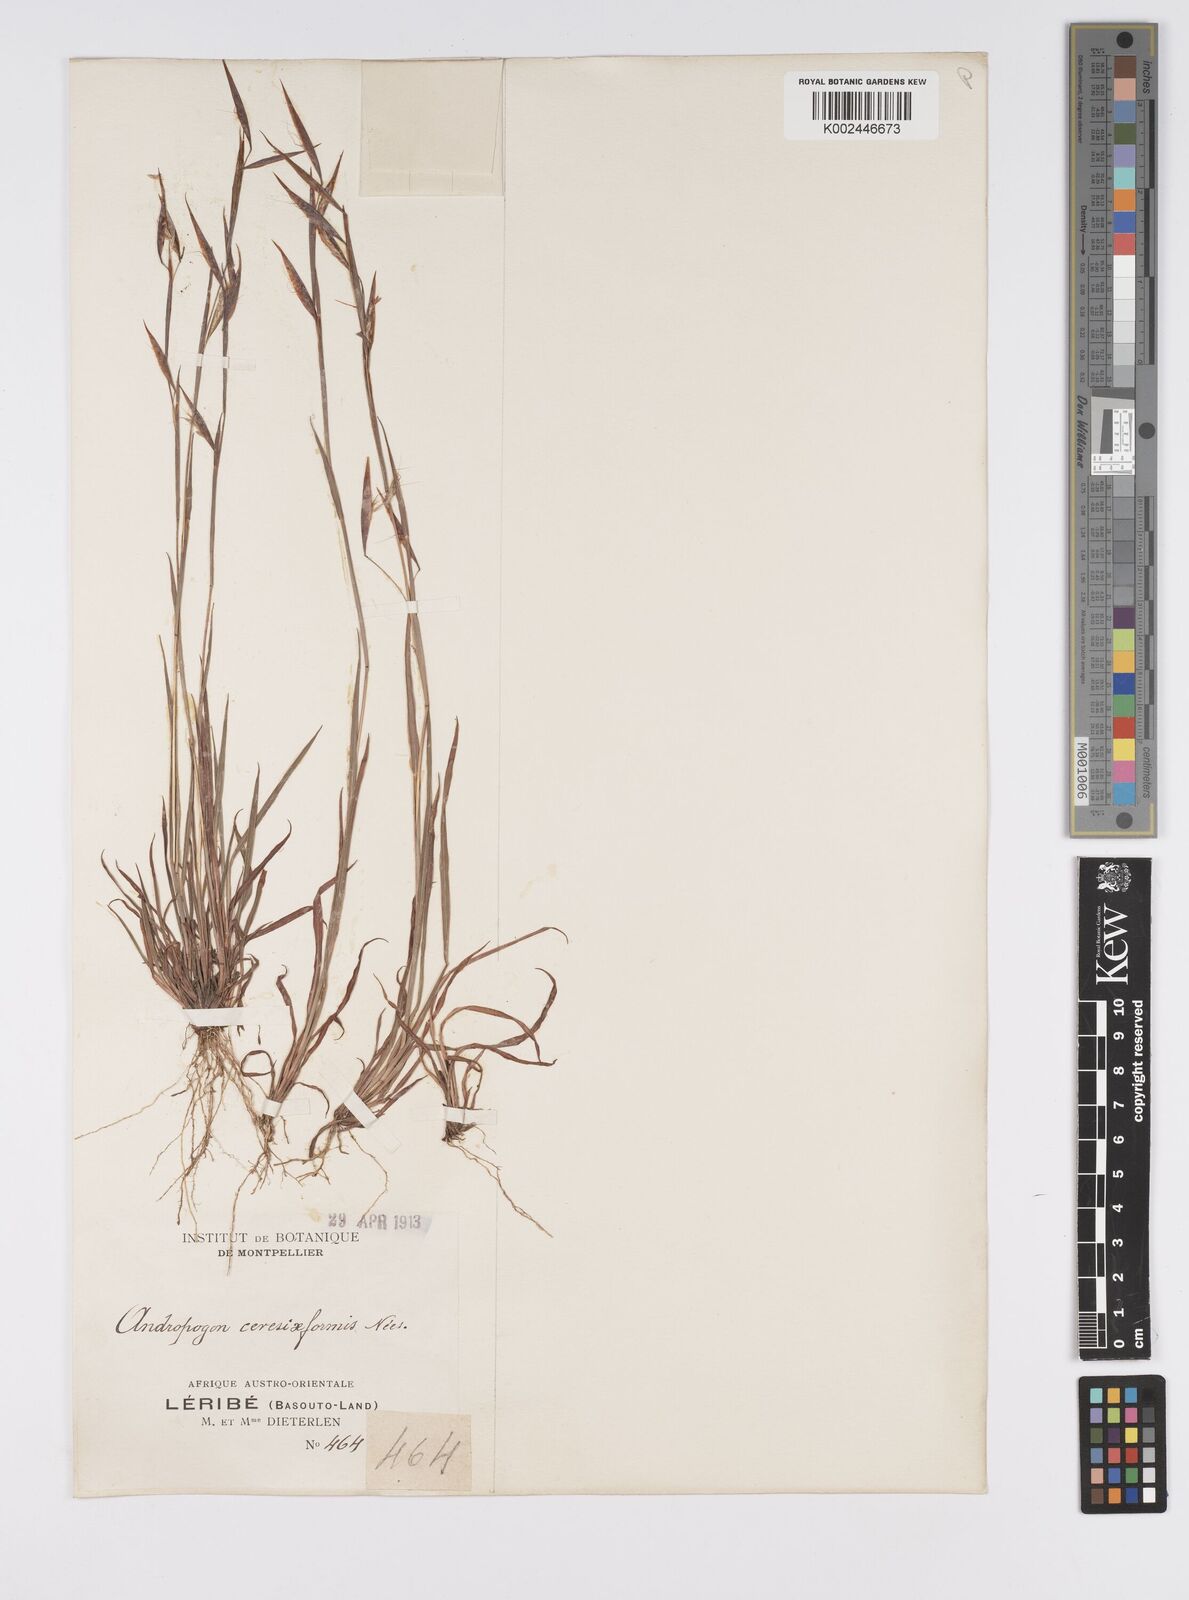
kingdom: Plantae
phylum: Tracheophyta
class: Liliopsida
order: Poales
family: Poaceae
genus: Monocymbium
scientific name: Monocymbium ceresiiforme
